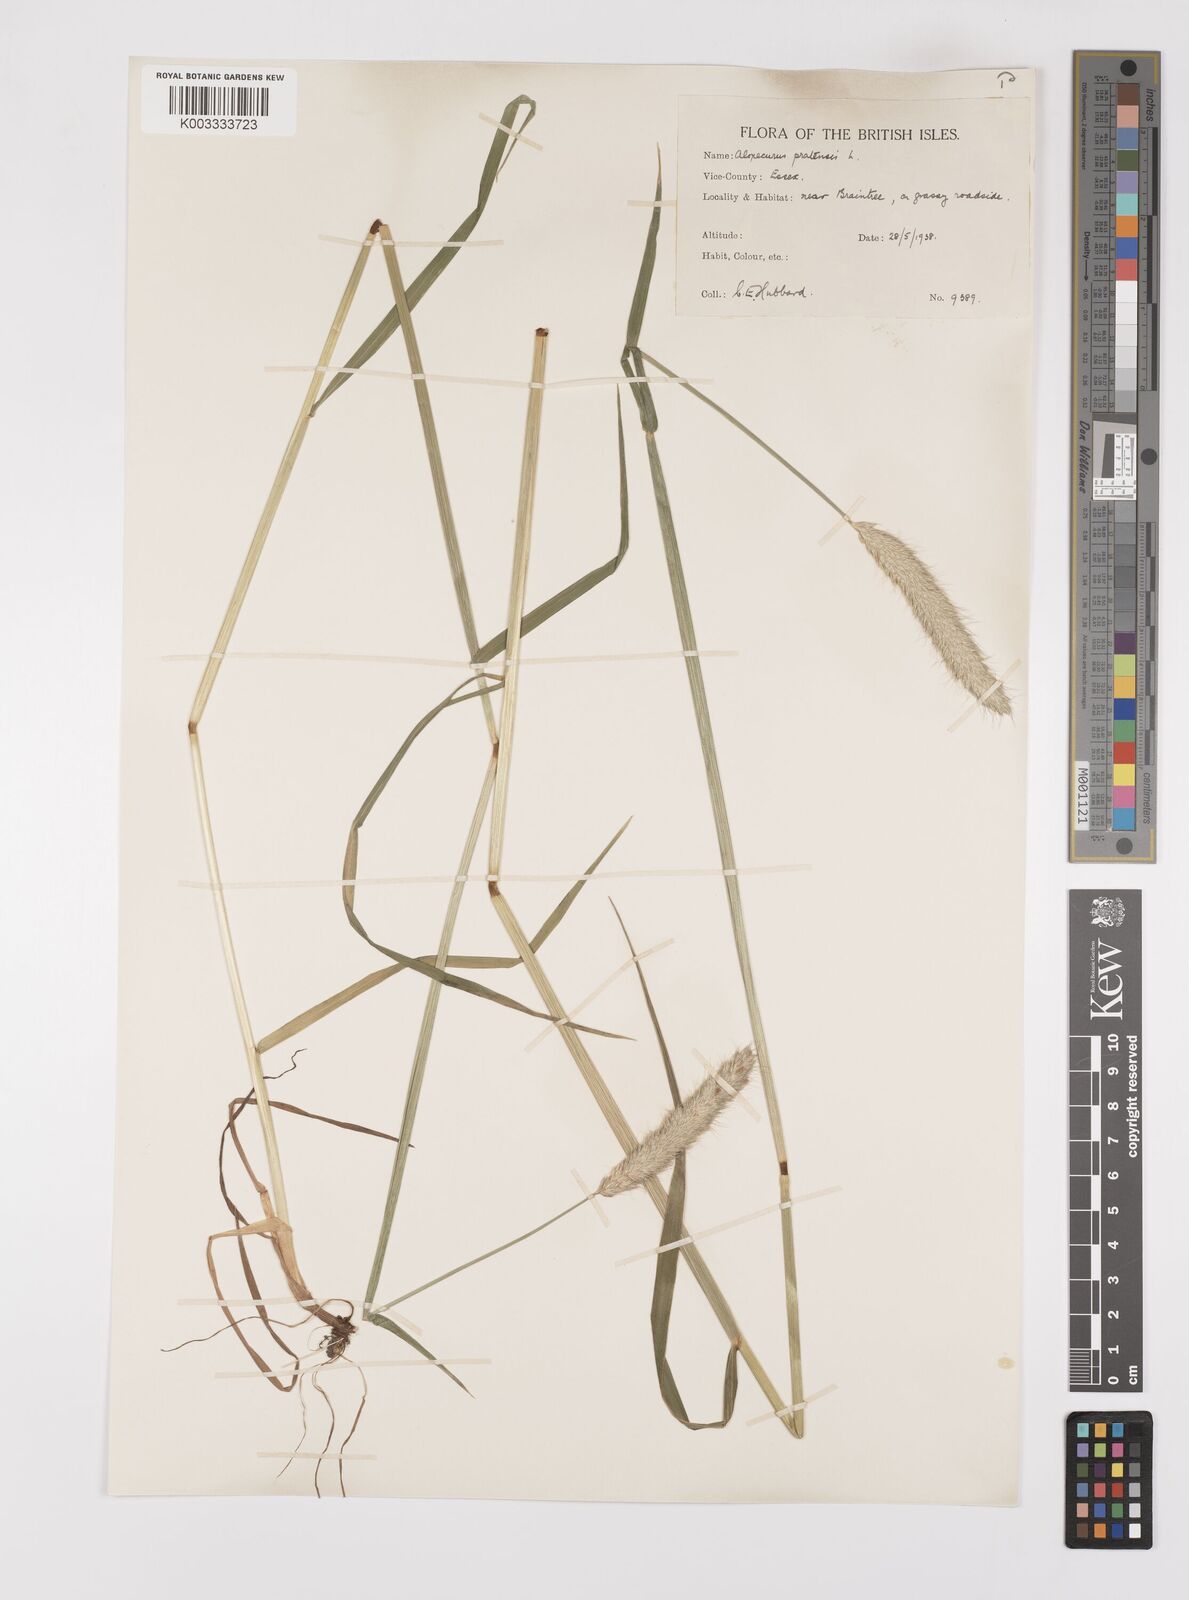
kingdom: Plantae
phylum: Tracheophyta
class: Liliopsida
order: Poales
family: Poaceae
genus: Alopecurus
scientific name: Alopecurus pratensis
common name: Meadow foxtail
